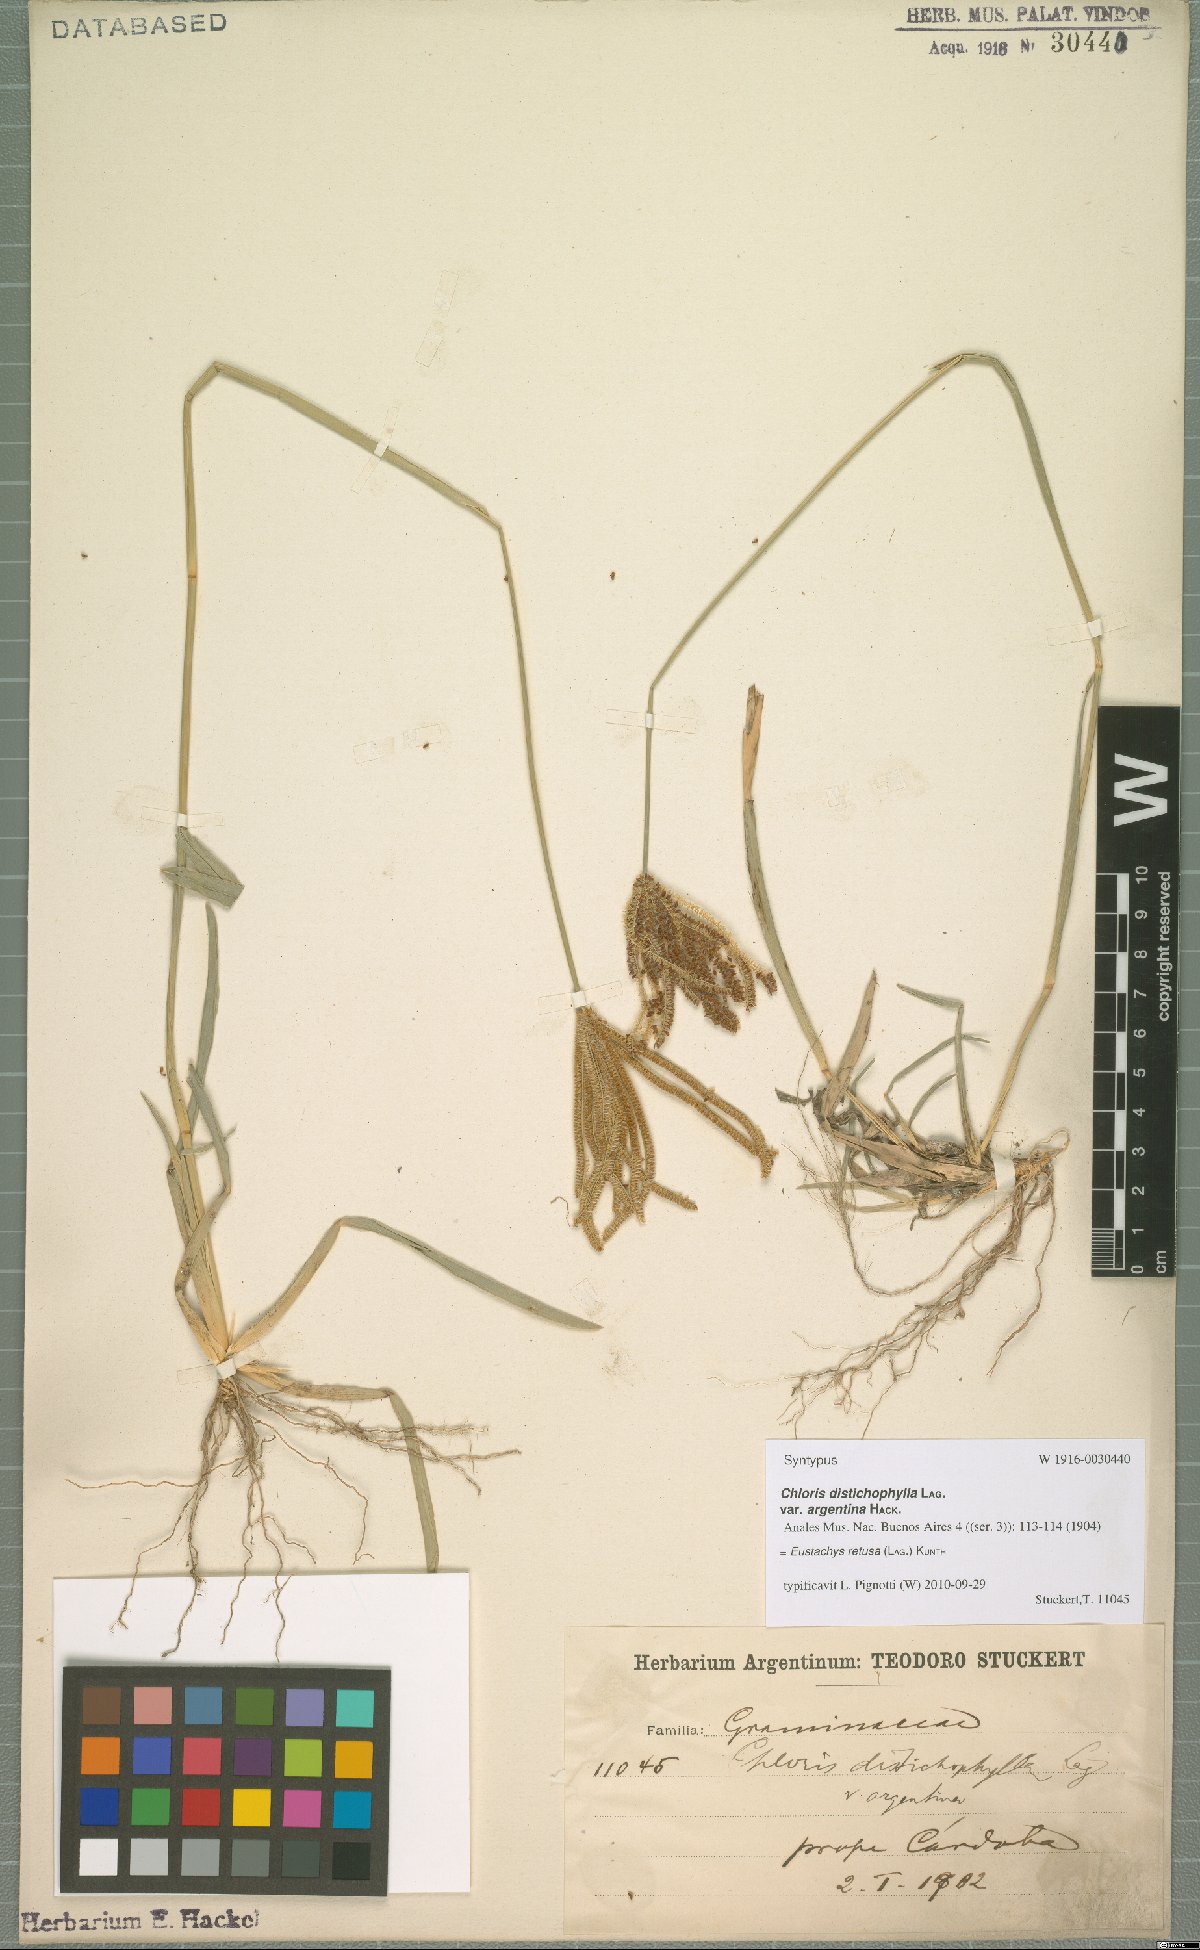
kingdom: Plantae
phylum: Tracheophyta
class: Liliopsida
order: Poales
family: Poaceae
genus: Eustachys
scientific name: Eustachys retusa
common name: Argentine fingergrass
